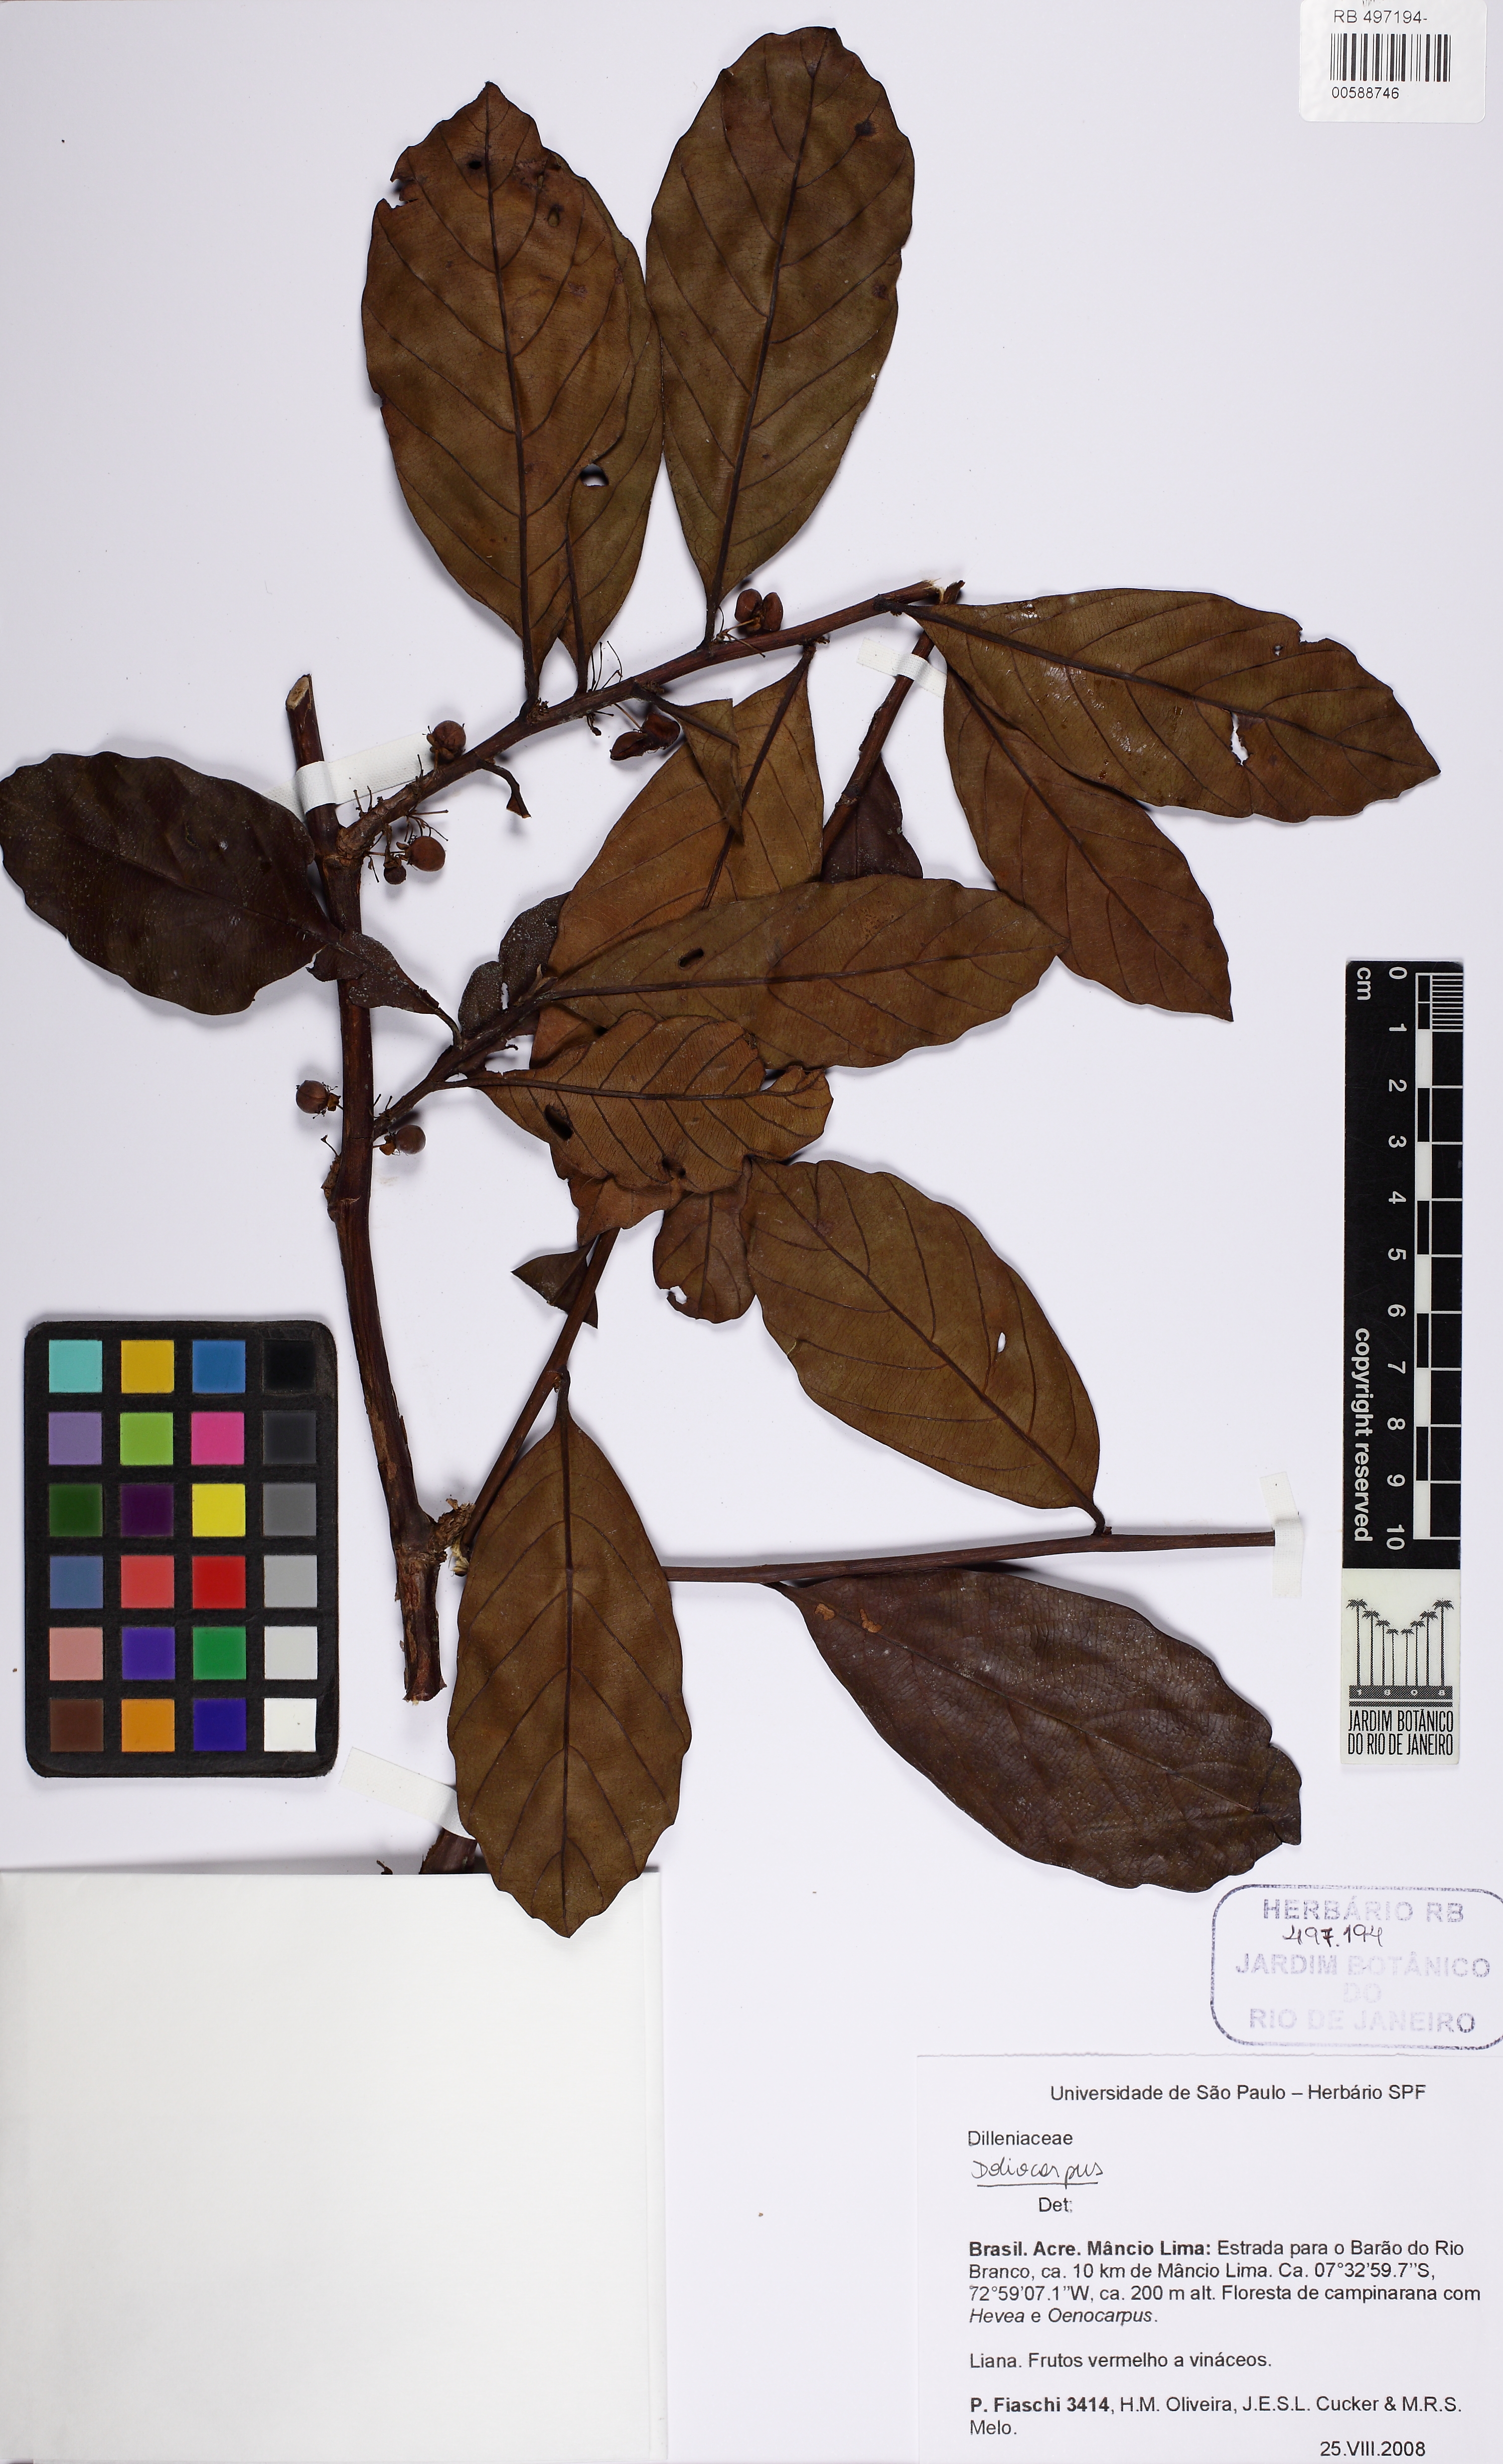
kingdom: Plantae
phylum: Tracheophyta
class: Magnoliopsida
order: Dilleniales
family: Dilleniaceae
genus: Doliocarpus
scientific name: Doliocarpus
